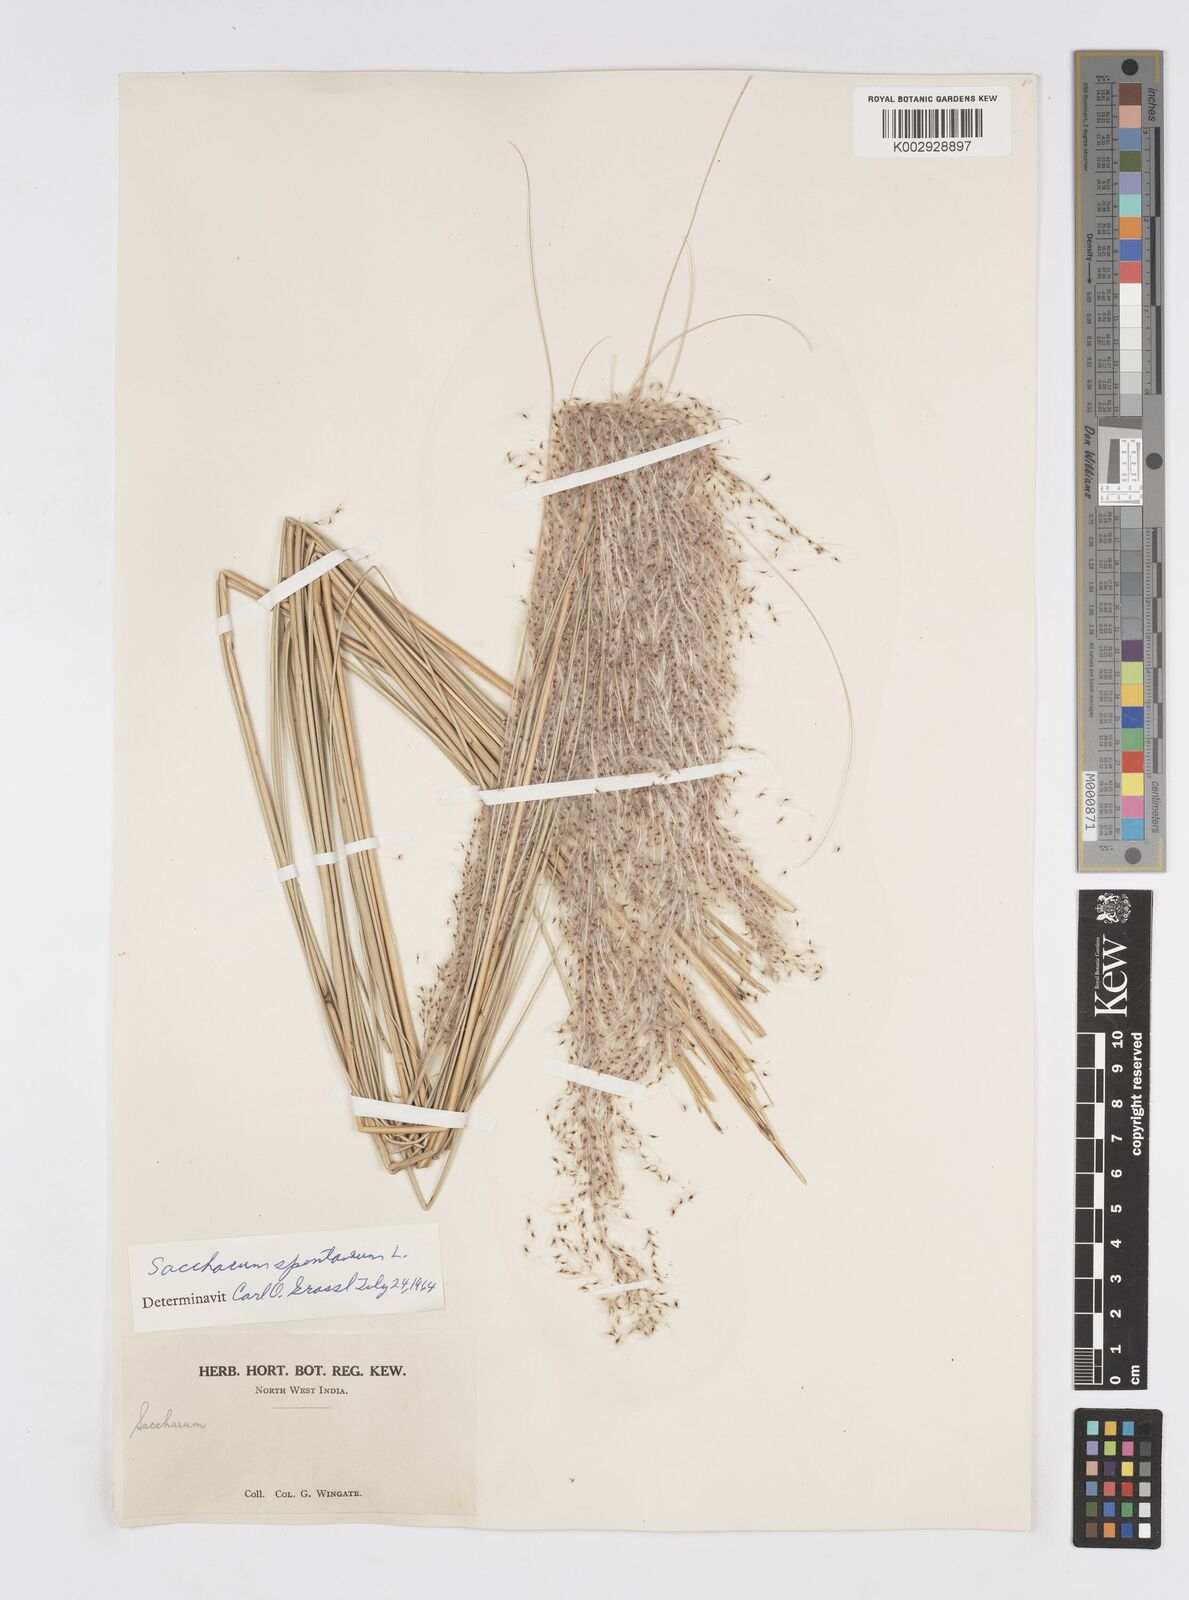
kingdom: Plantae
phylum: Tracheophyta
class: Liliopsida
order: Poales
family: Poaceae
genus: Saccharum
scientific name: Saccharum spontaneum
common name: Wild sugarcane
